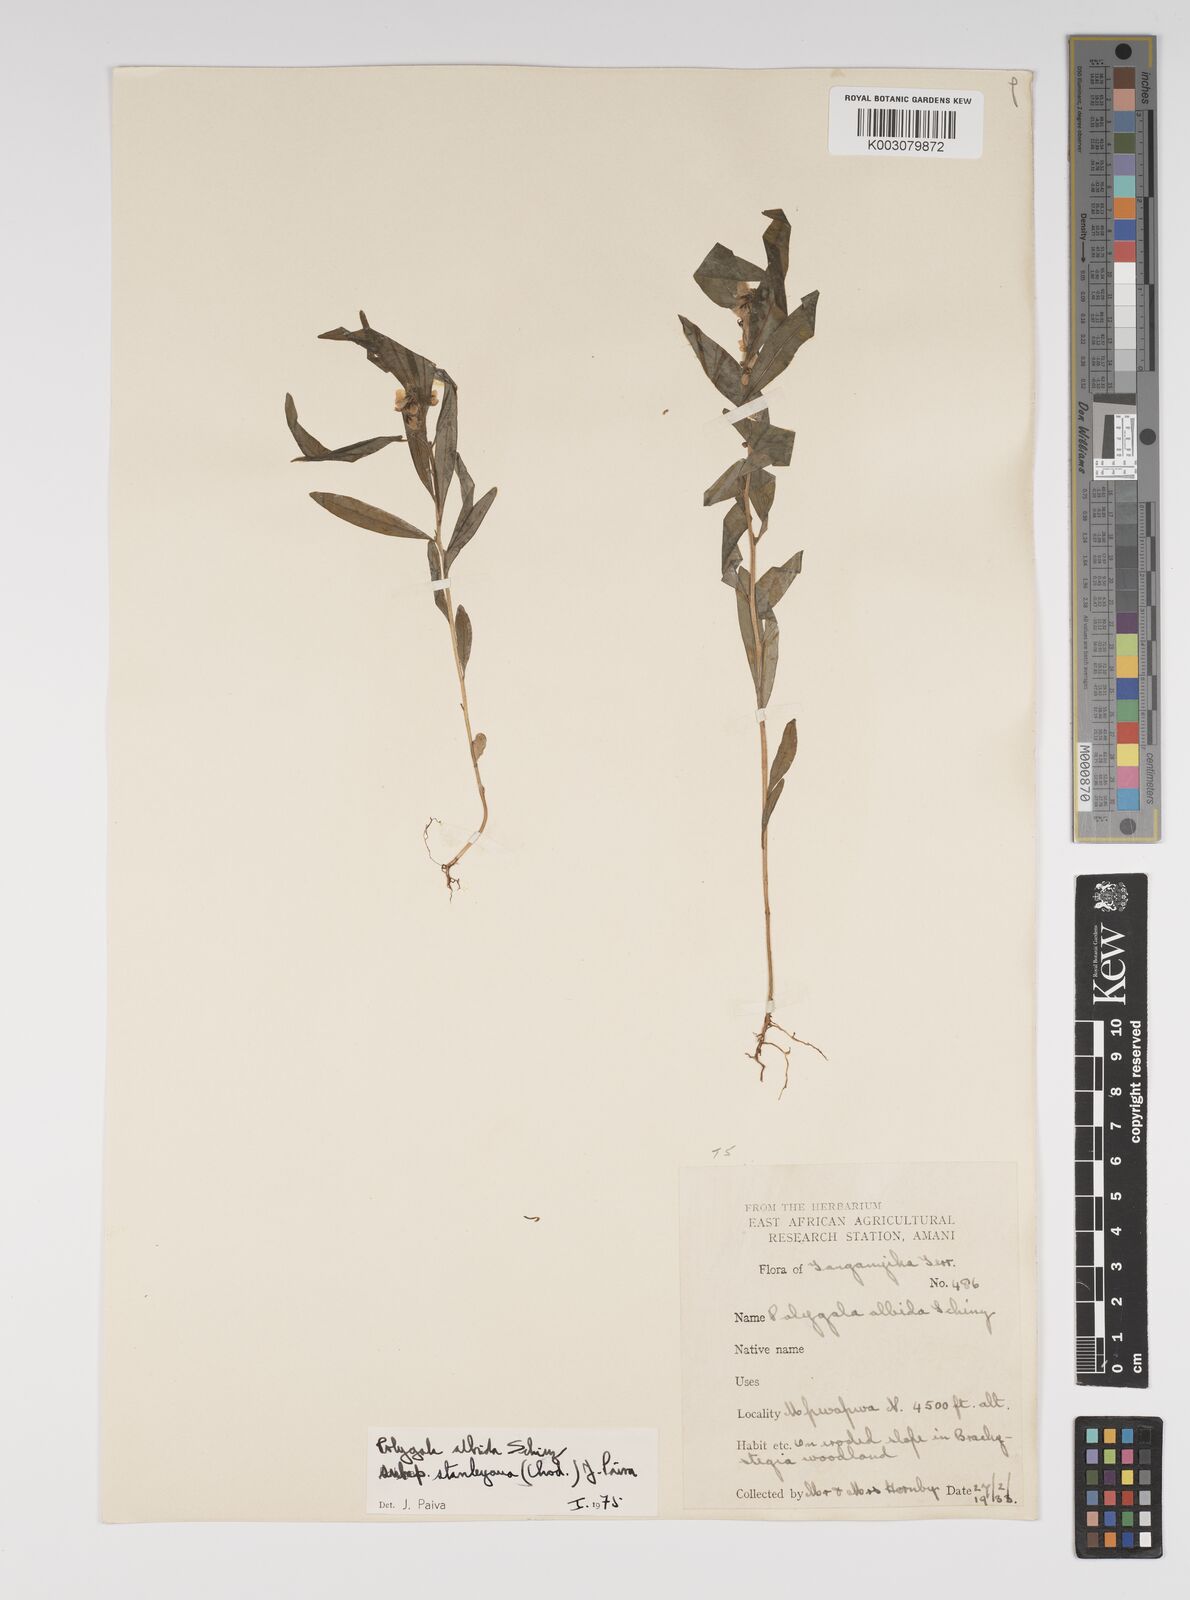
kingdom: Plantae
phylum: Tracheophyta
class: Magnoliopsida
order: Fabales
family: Polygalaceae
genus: Polygala
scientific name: Polygala albida
